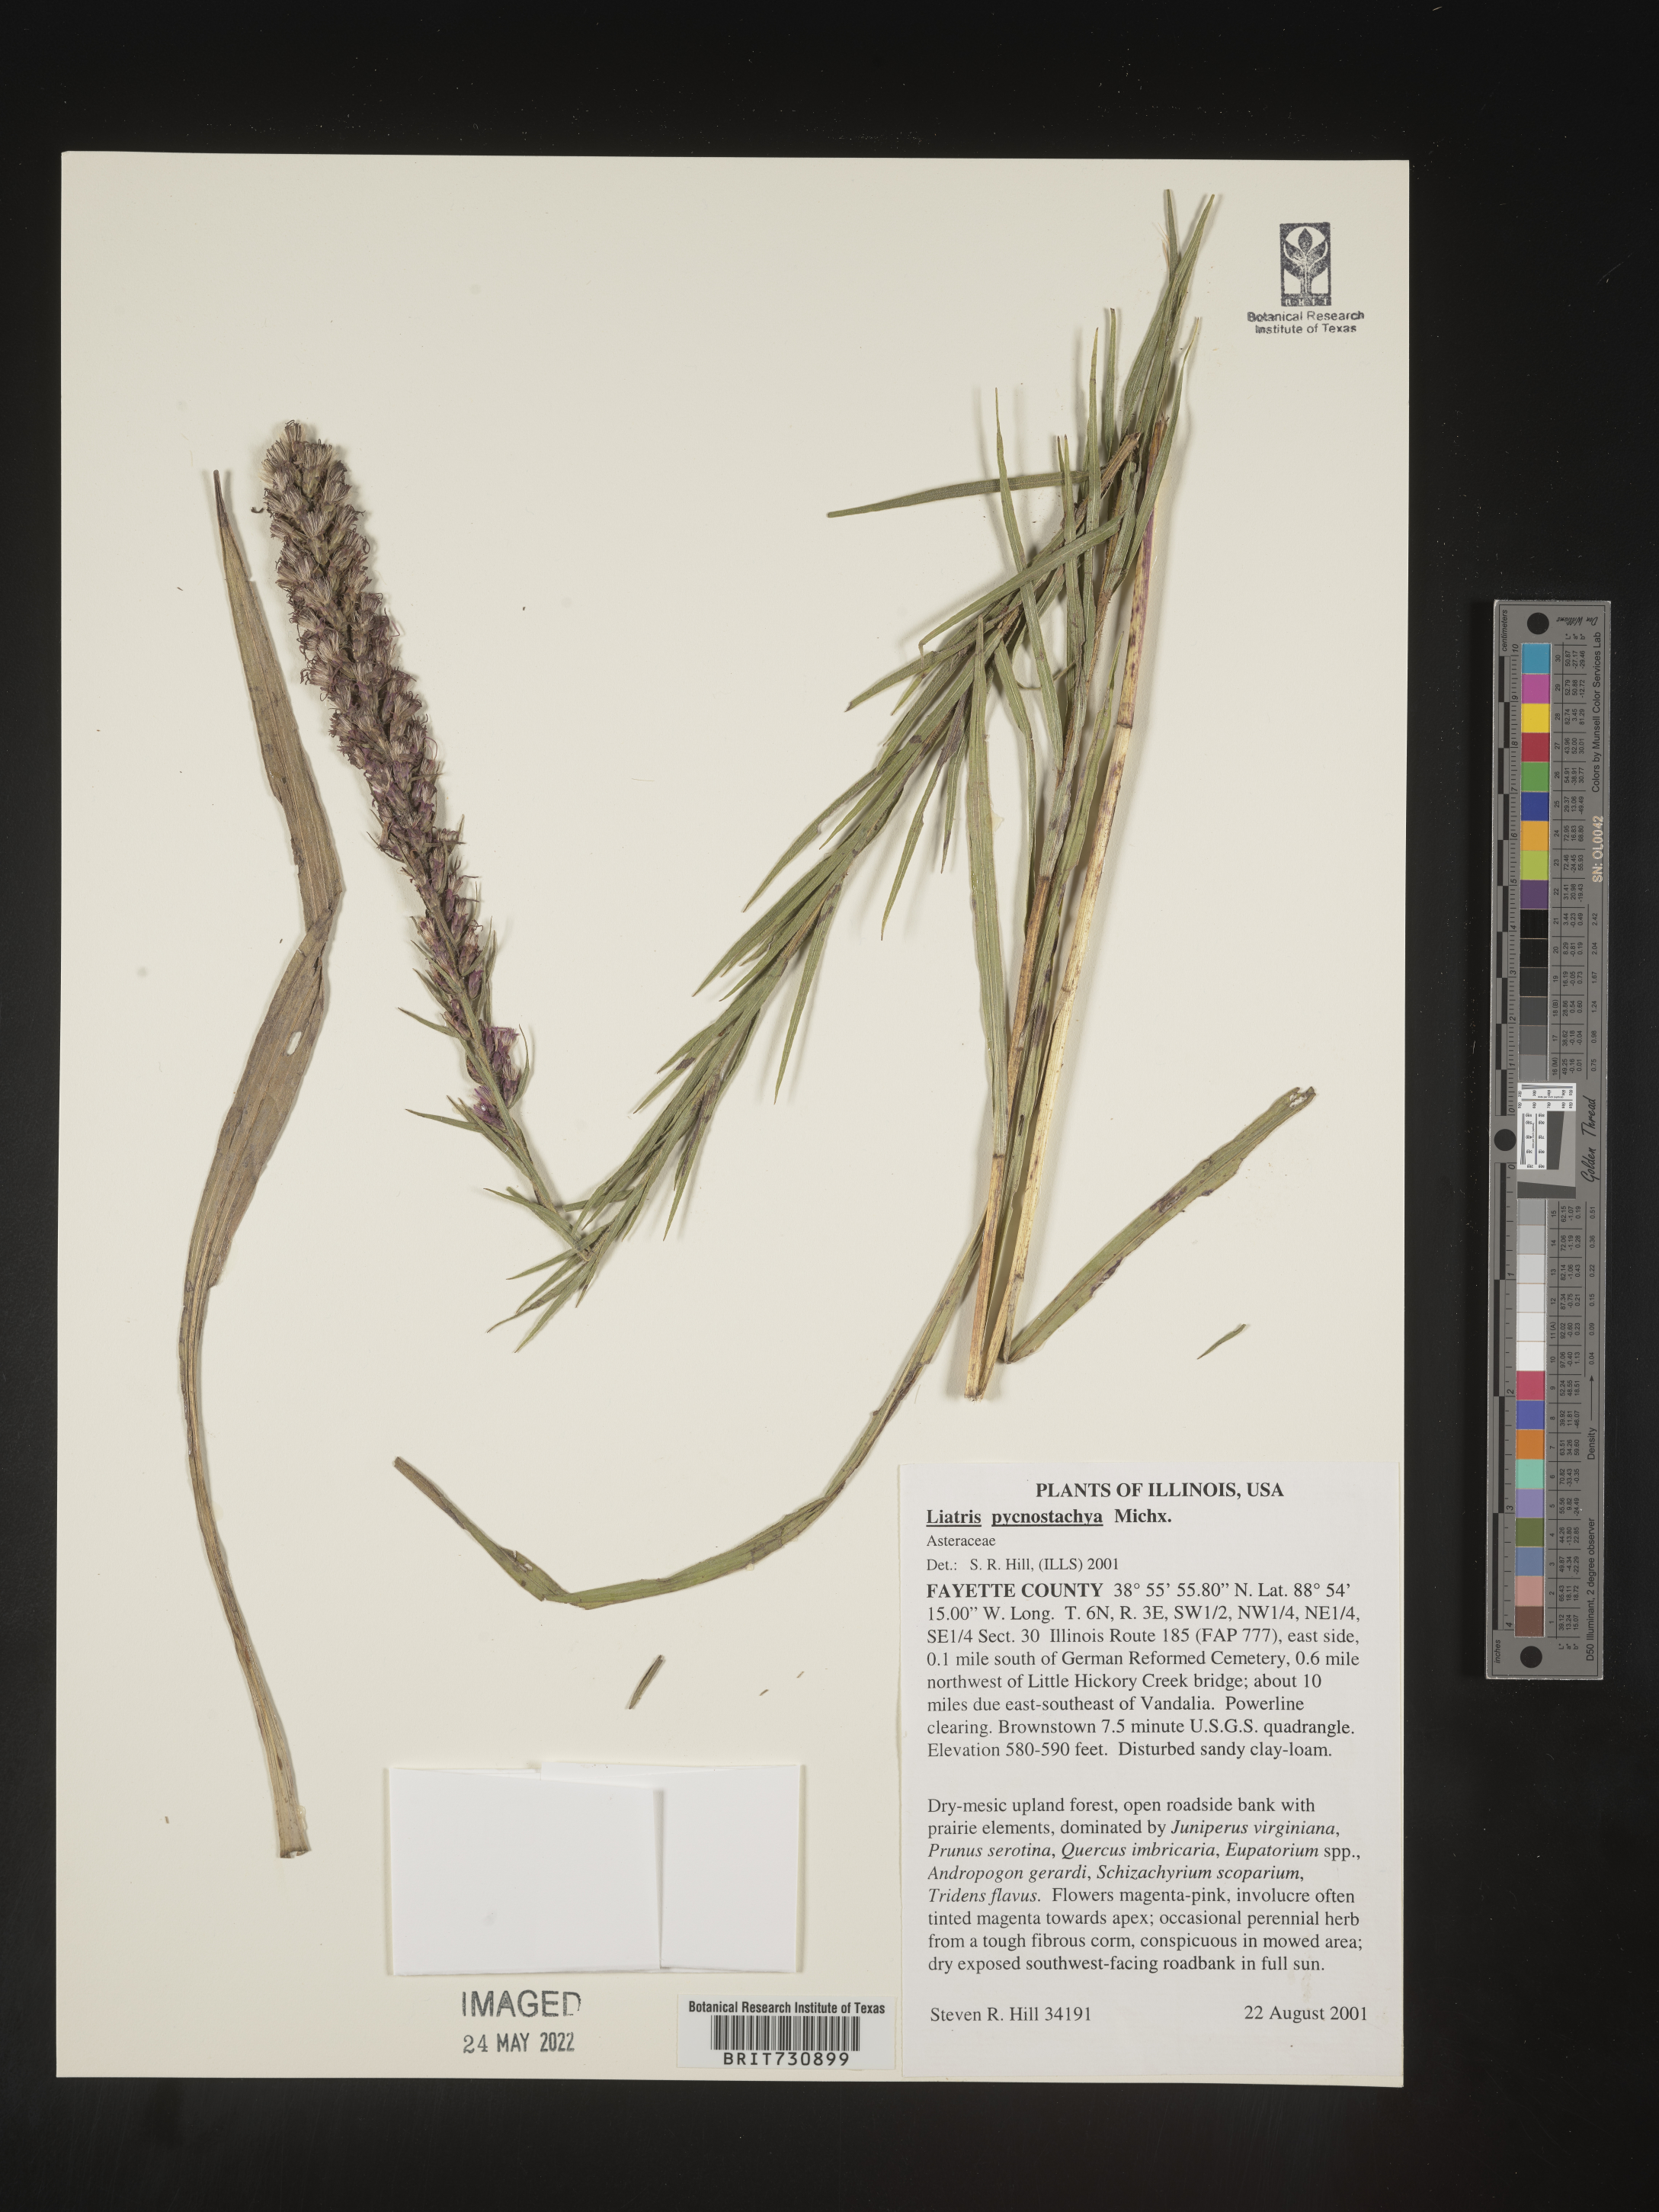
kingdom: Plantae
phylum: Tracheophyta
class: Magnoliopsida
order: Asterales
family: Asteraceae
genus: Liatris
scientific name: Liatris pycnostachya
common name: Cattail gayfeather
